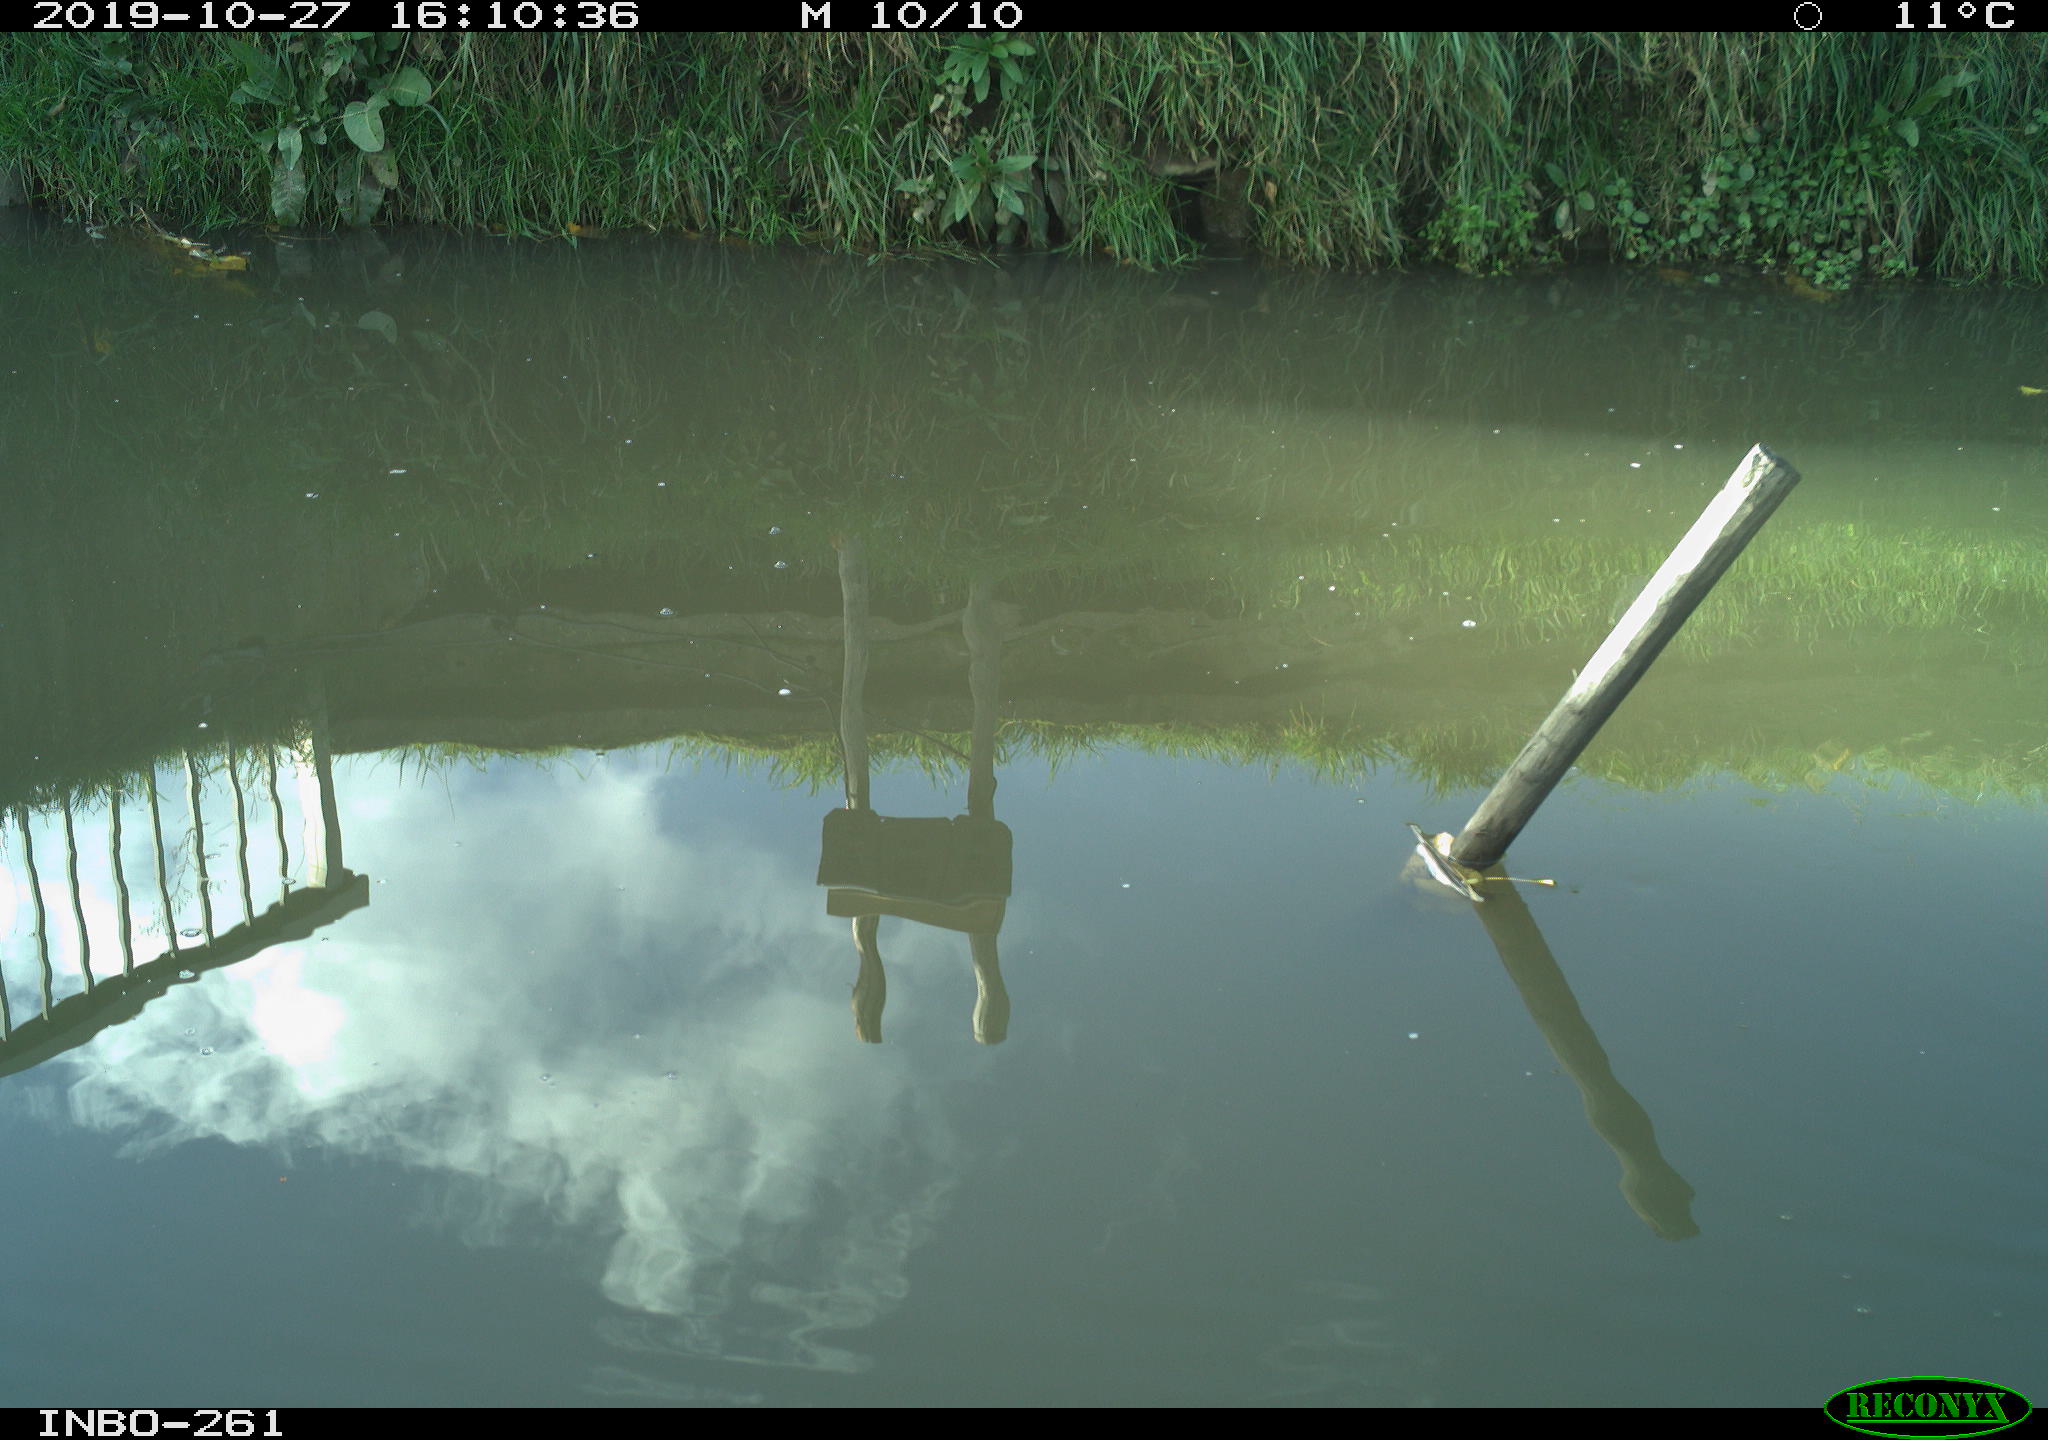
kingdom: Animalia
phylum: Chordata
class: Aves
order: Gruiformes
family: Rallidae
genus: Gallinula
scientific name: Gallinula chloropus
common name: Common moorhen
